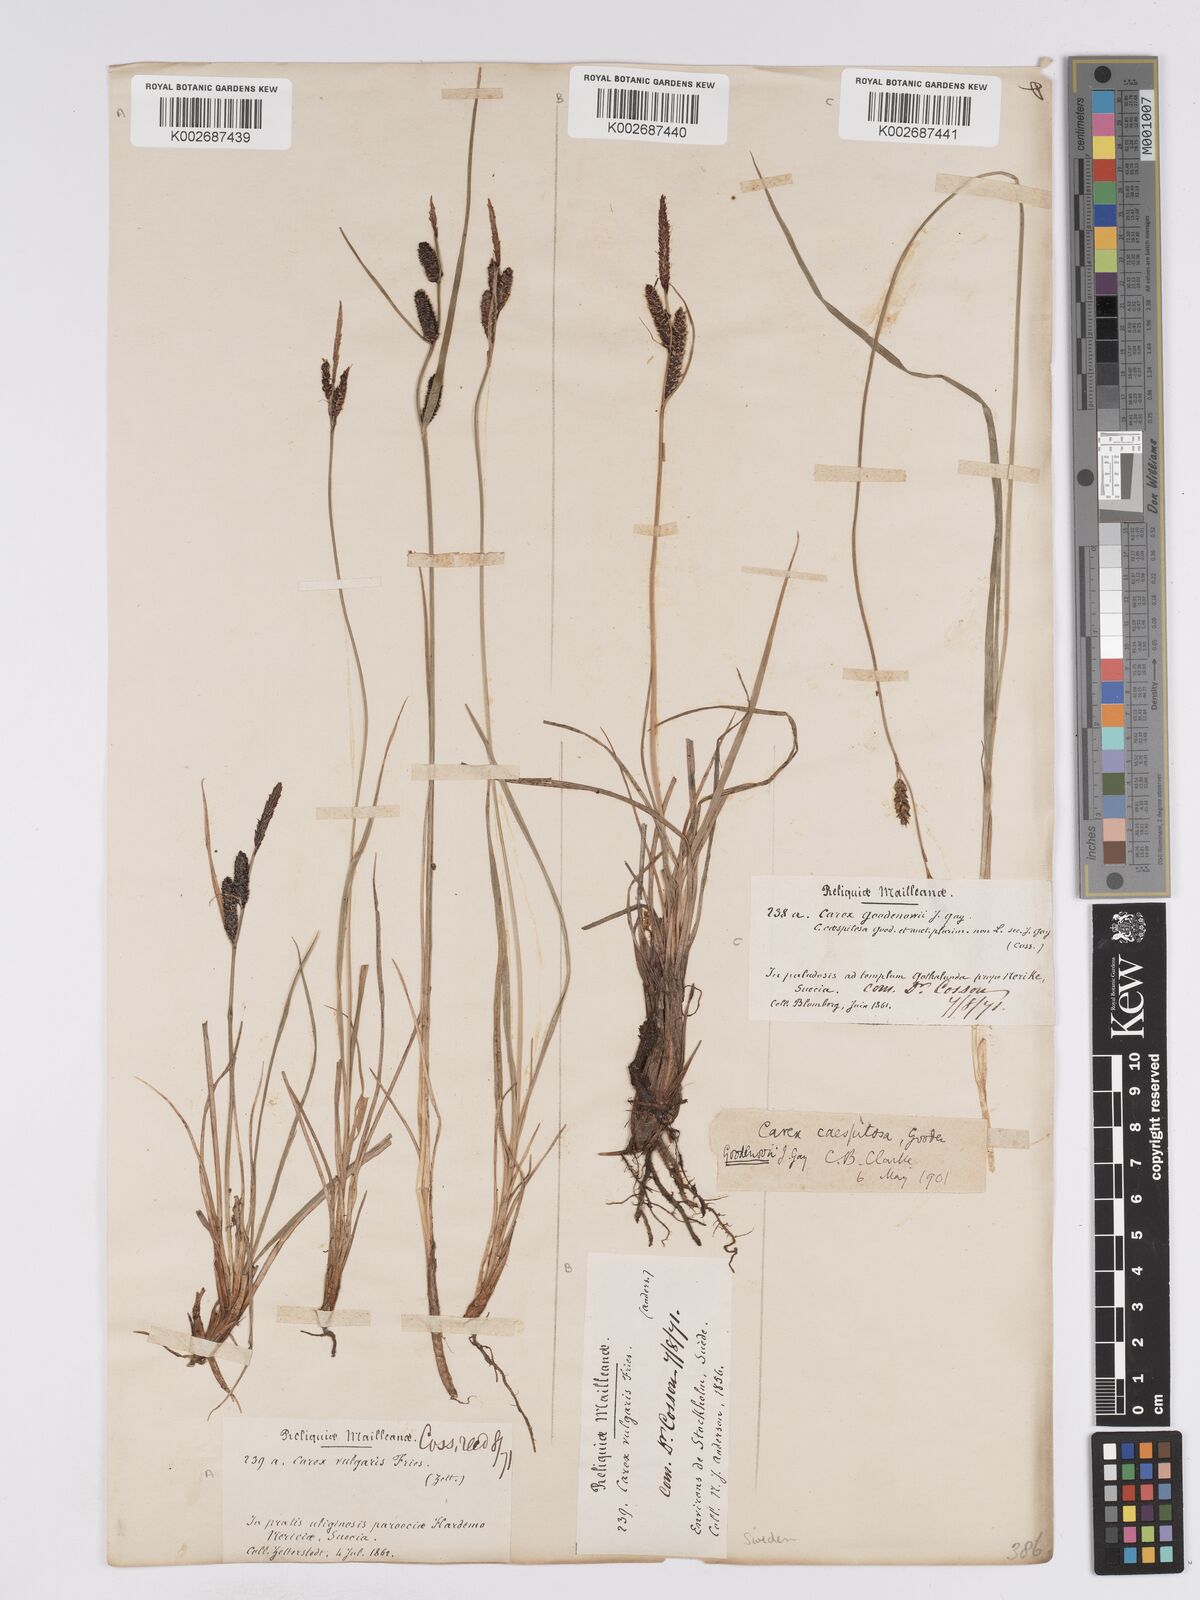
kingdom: Plantae
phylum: Tracheophyta
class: Liliopsida
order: Poales
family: Cyperaceae
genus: Carex
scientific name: Carex nigra
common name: Common sedge
